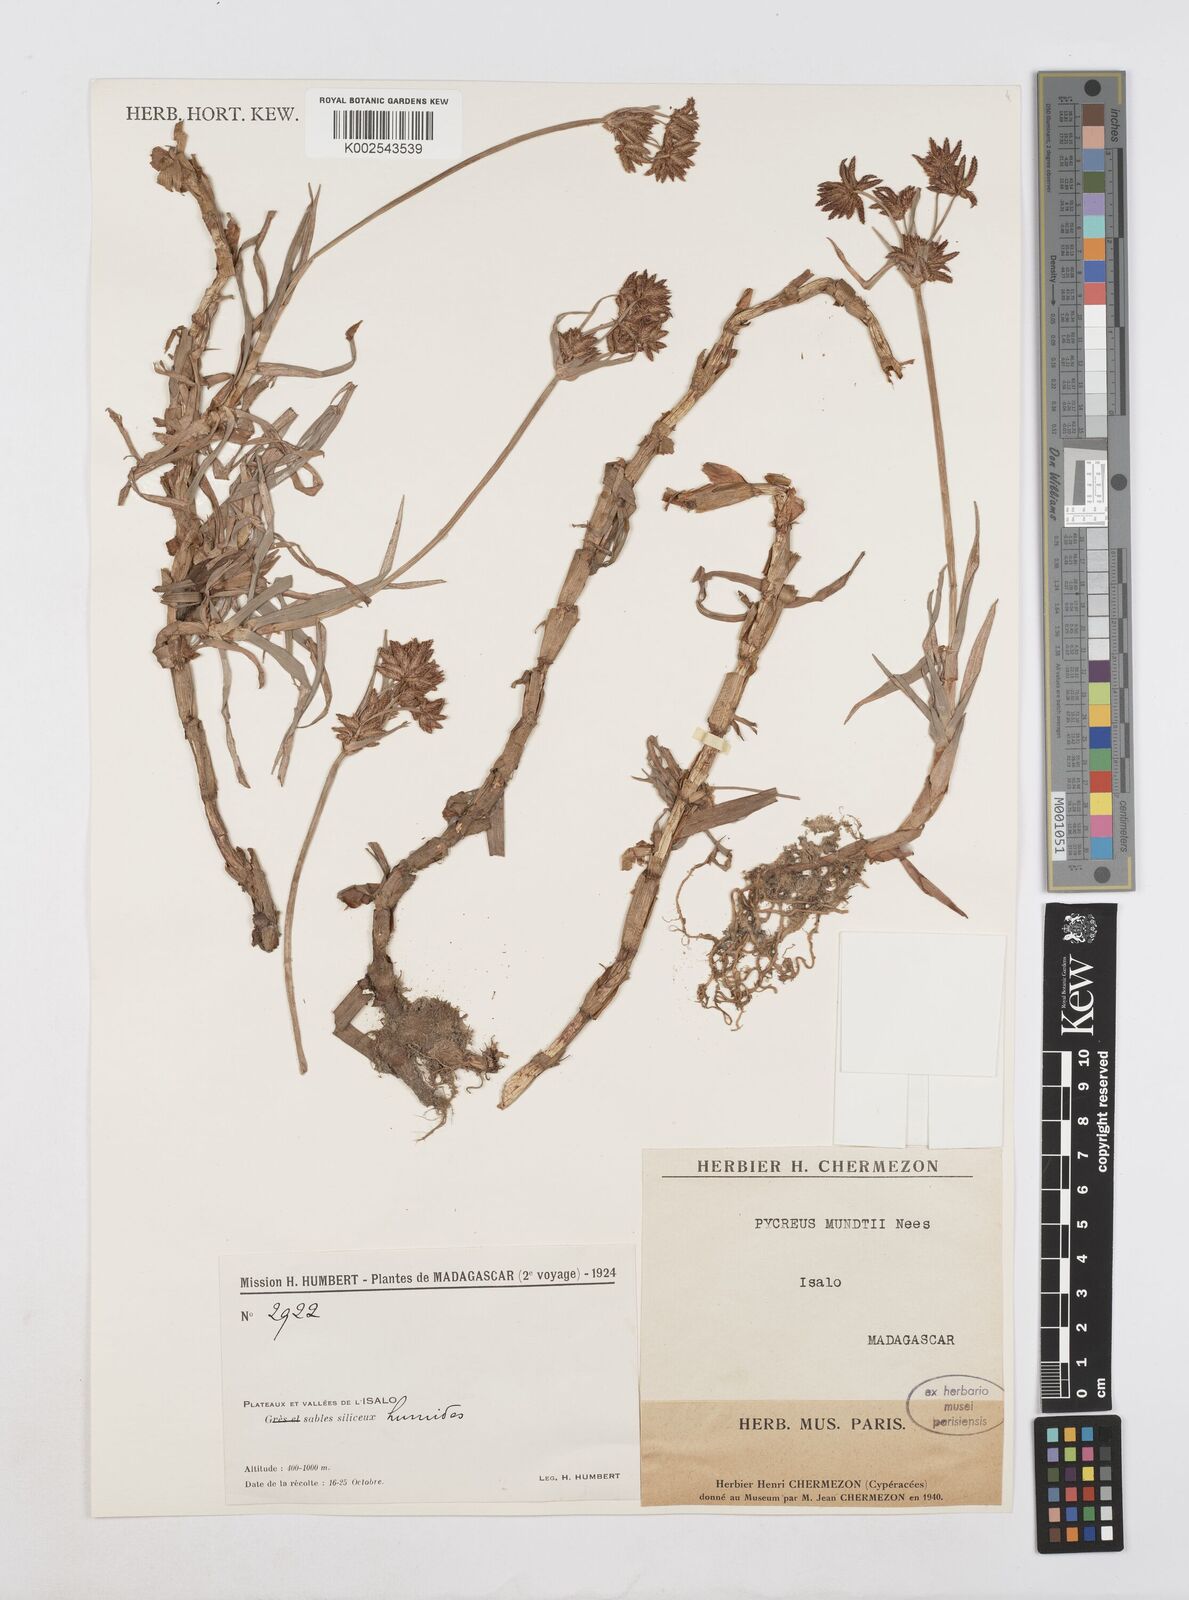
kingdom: Plantae
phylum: Tracheophyta
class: Liliopsida
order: Poales
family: Cyperaceae
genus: Cyperus
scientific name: Cyperus mundii
